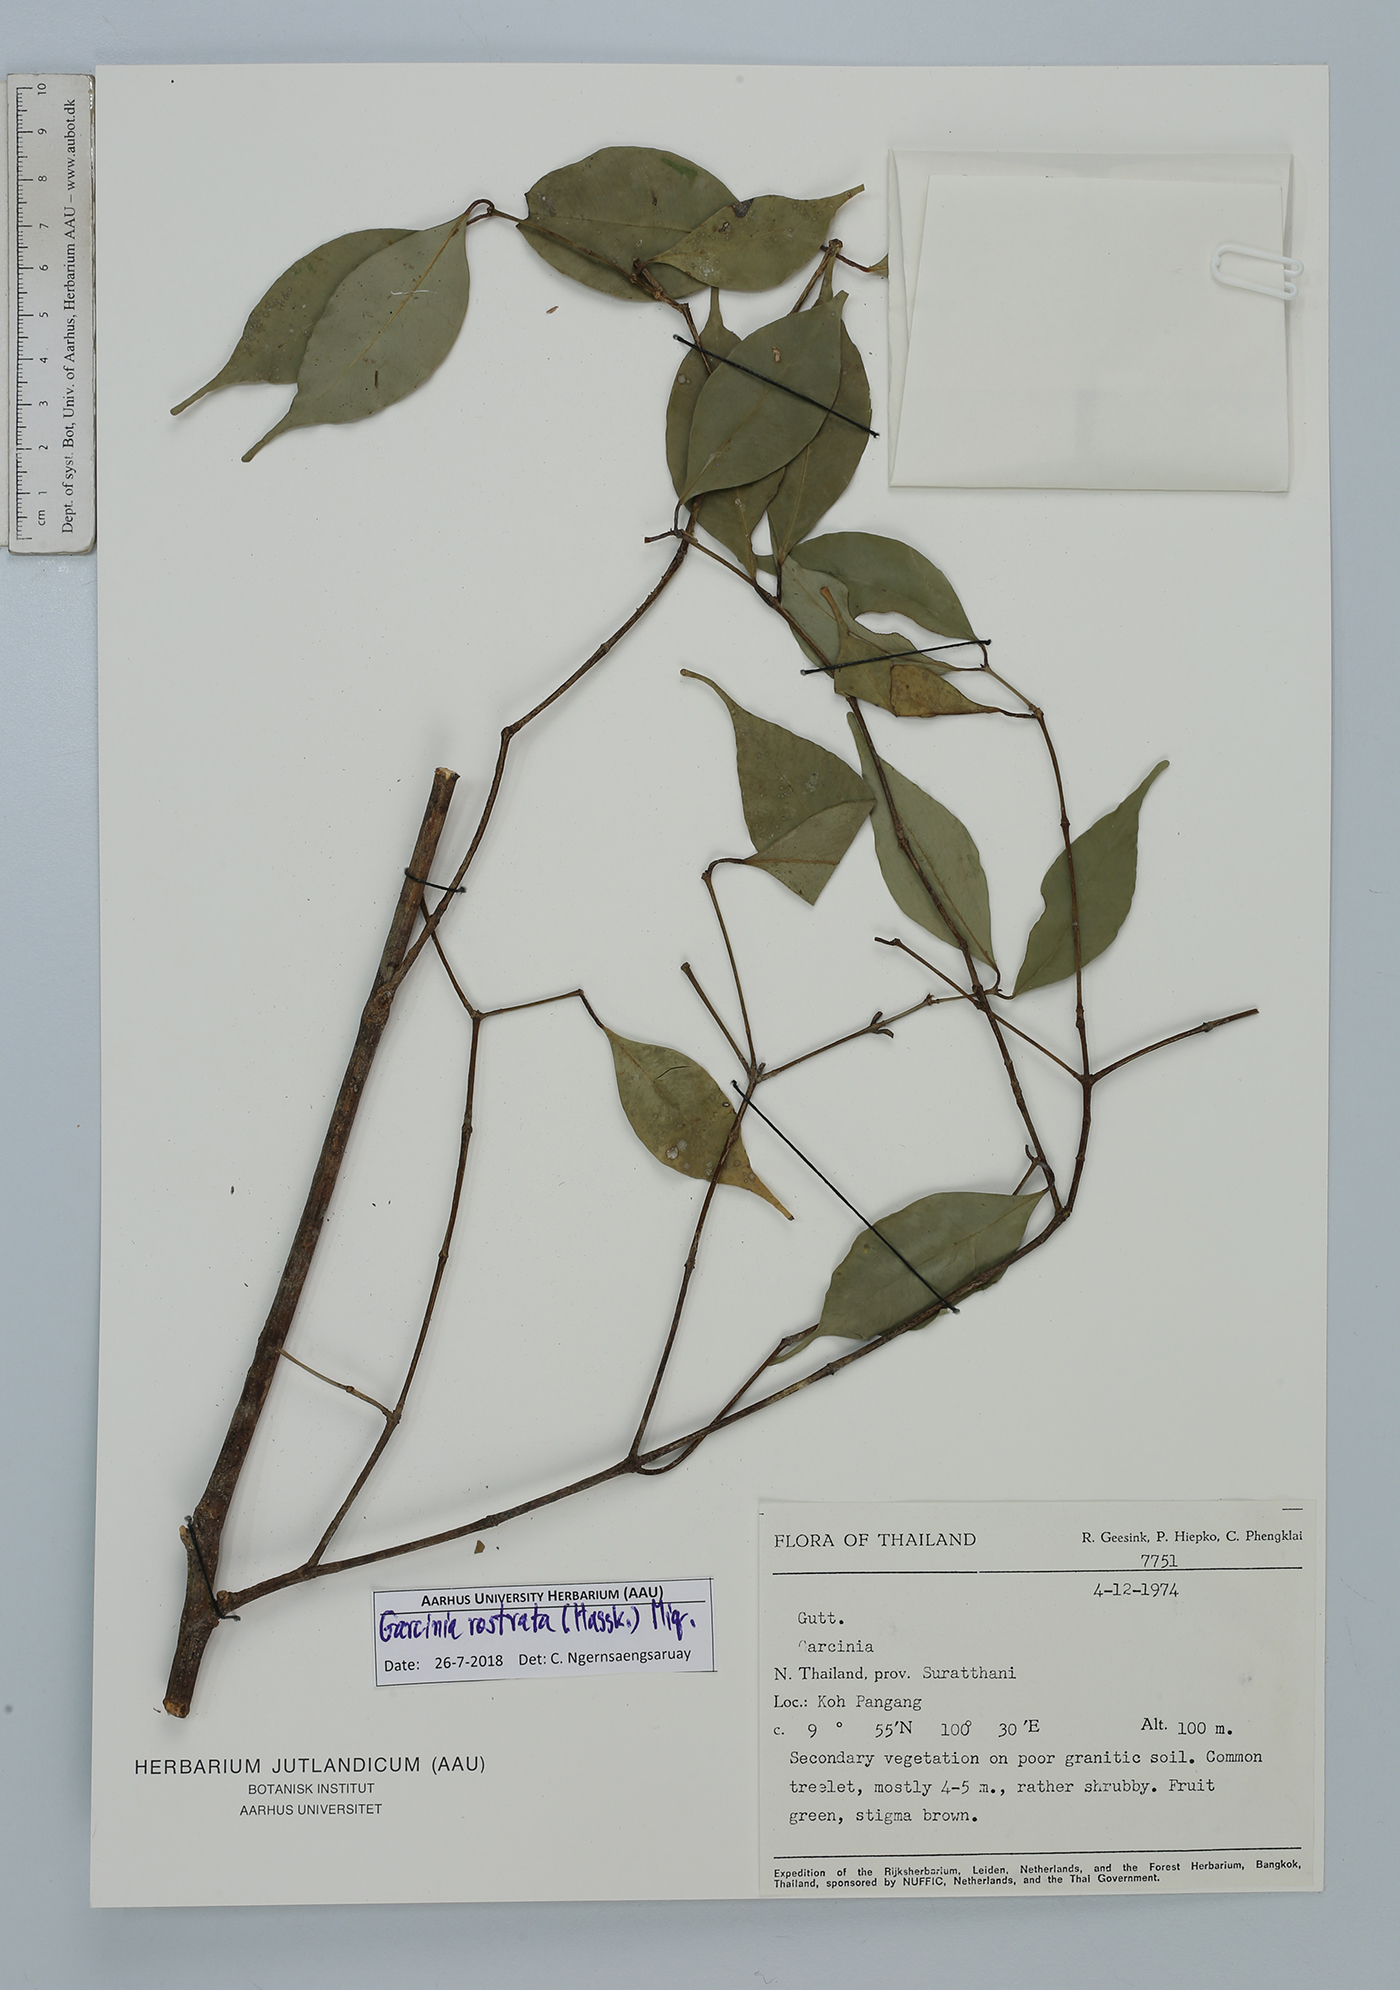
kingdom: Plantae
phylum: Tracheophyta
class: Magnoliopsida
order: Malpighiales
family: Clusiaceae
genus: Garcinia
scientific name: Garcinia rostrata
